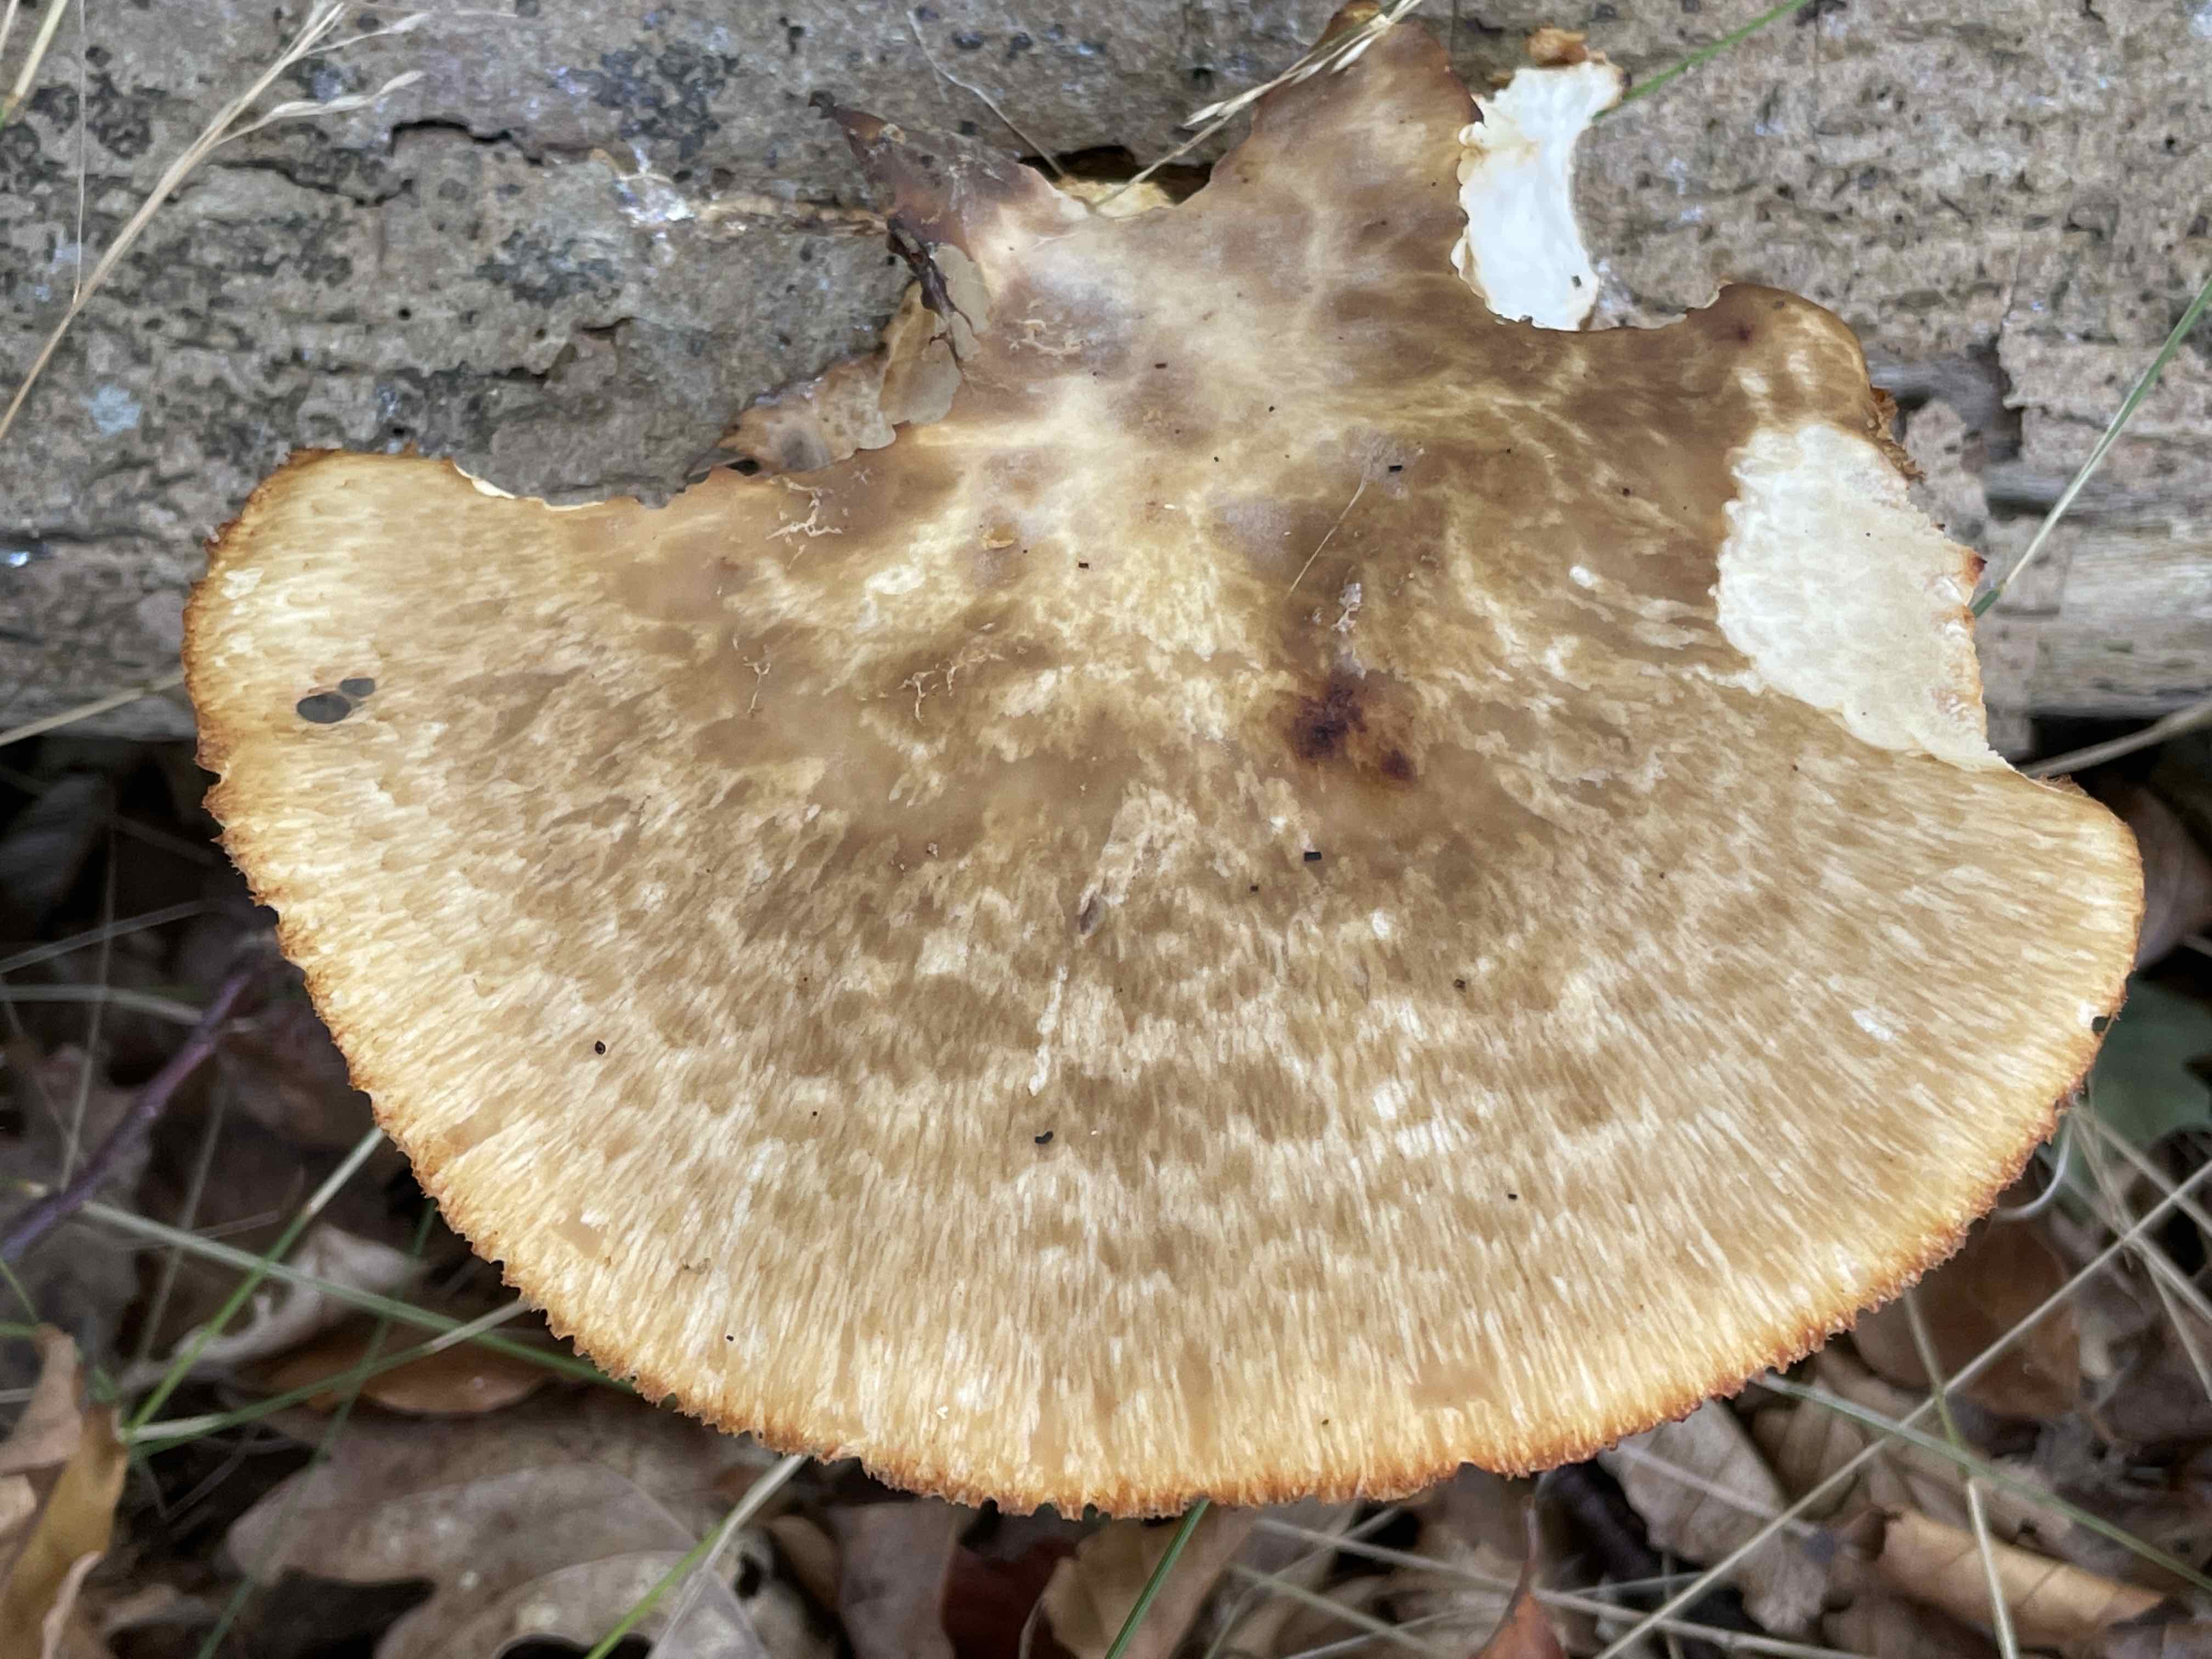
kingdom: Fungi
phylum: Basidiomycota
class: Agaricomycetes
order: Polyporales
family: Polyporaceae
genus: Polyporus
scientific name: Polyporus tuberaster
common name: knoldet stilkporesvamp
